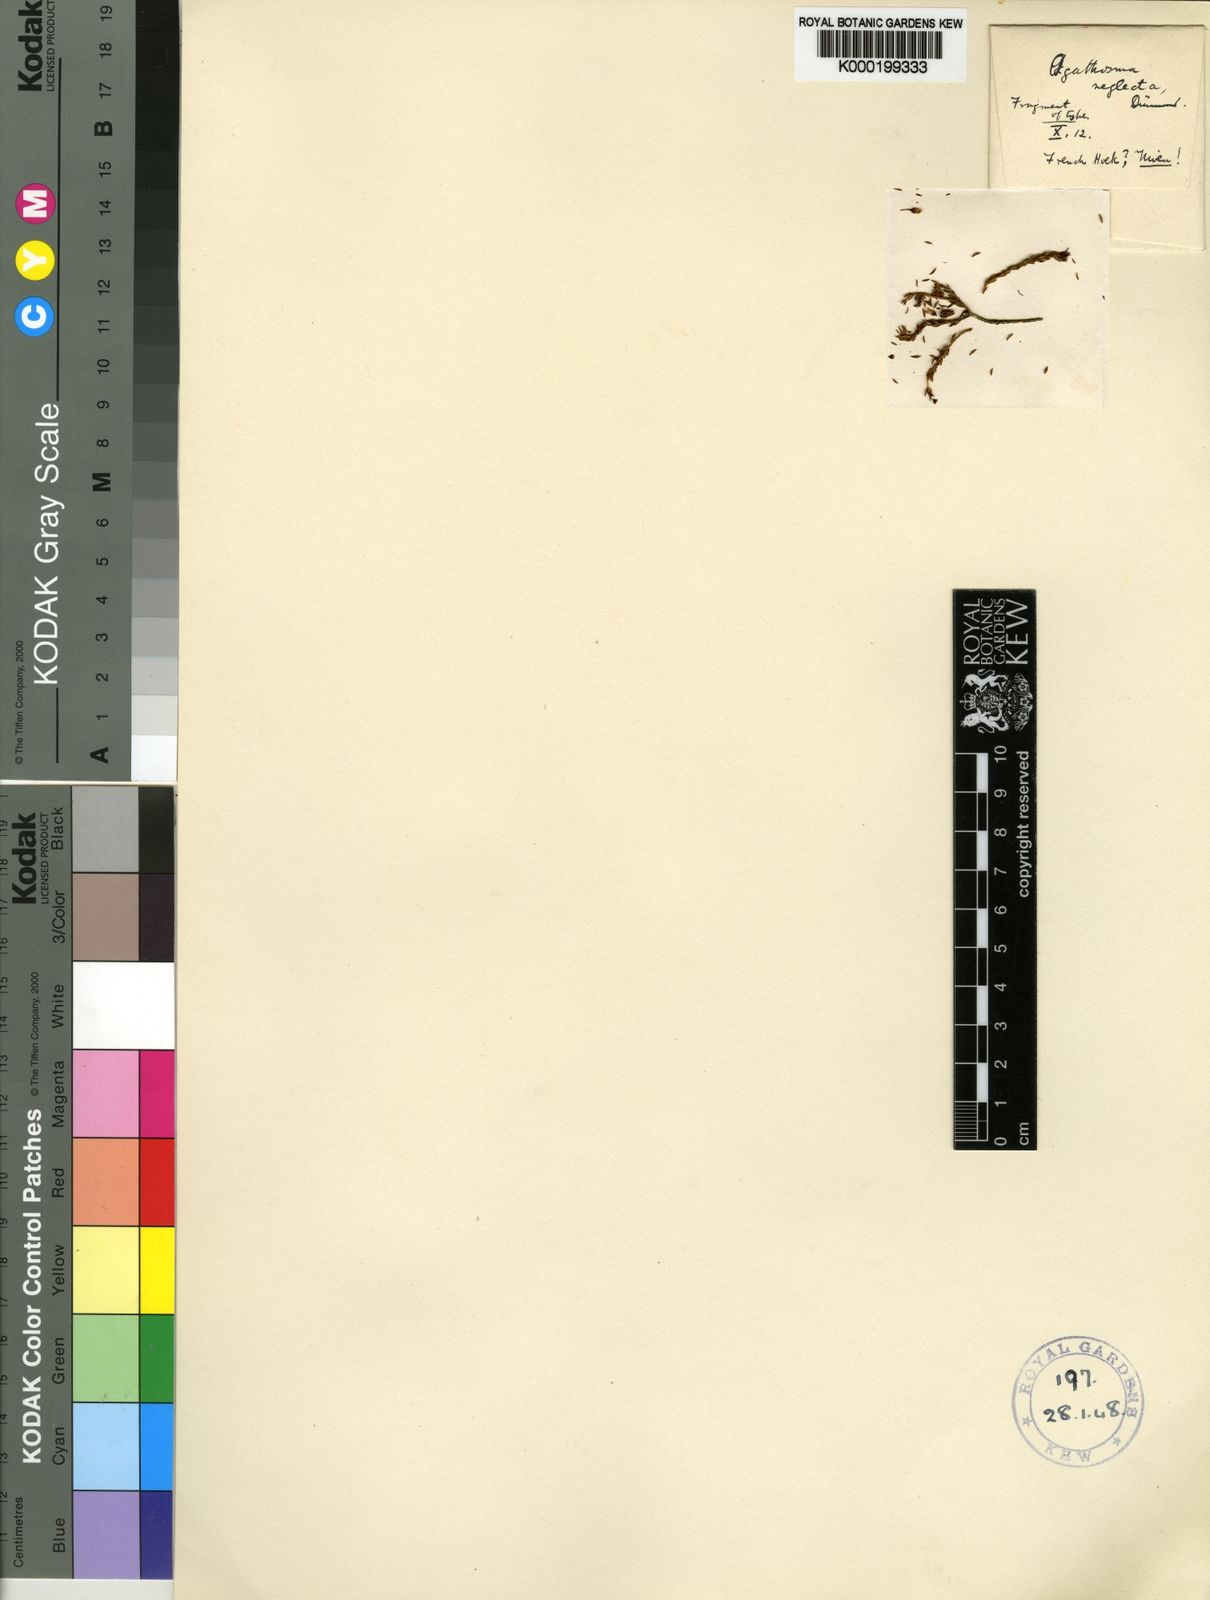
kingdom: Plantae
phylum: Tracheophyta
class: Magnoliopsida
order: Sapindales
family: Rutaceae
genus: Agathosma
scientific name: Agathosma capensis
